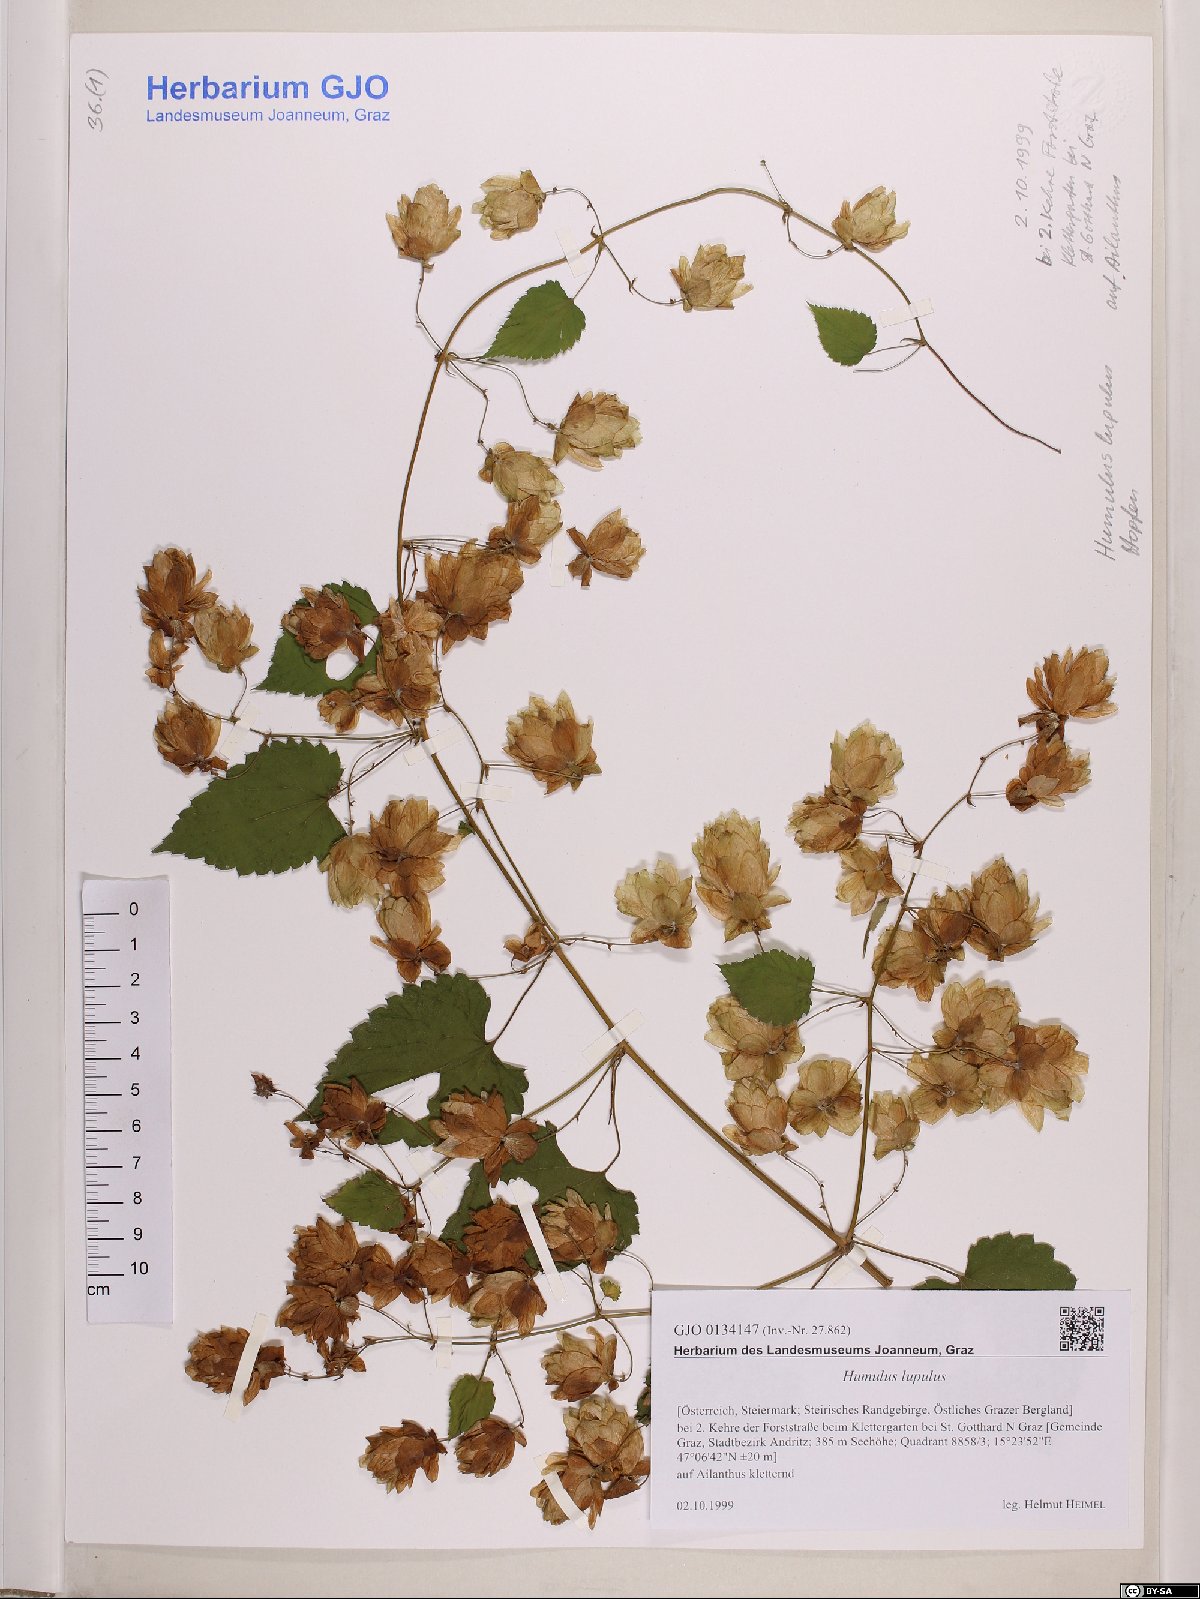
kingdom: Plantae
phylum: Tracheophyta
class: Magnoliopsida
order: Rosales
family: Cannabaceae
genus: Humulus
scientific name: Humulus lupulus
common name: Hop
